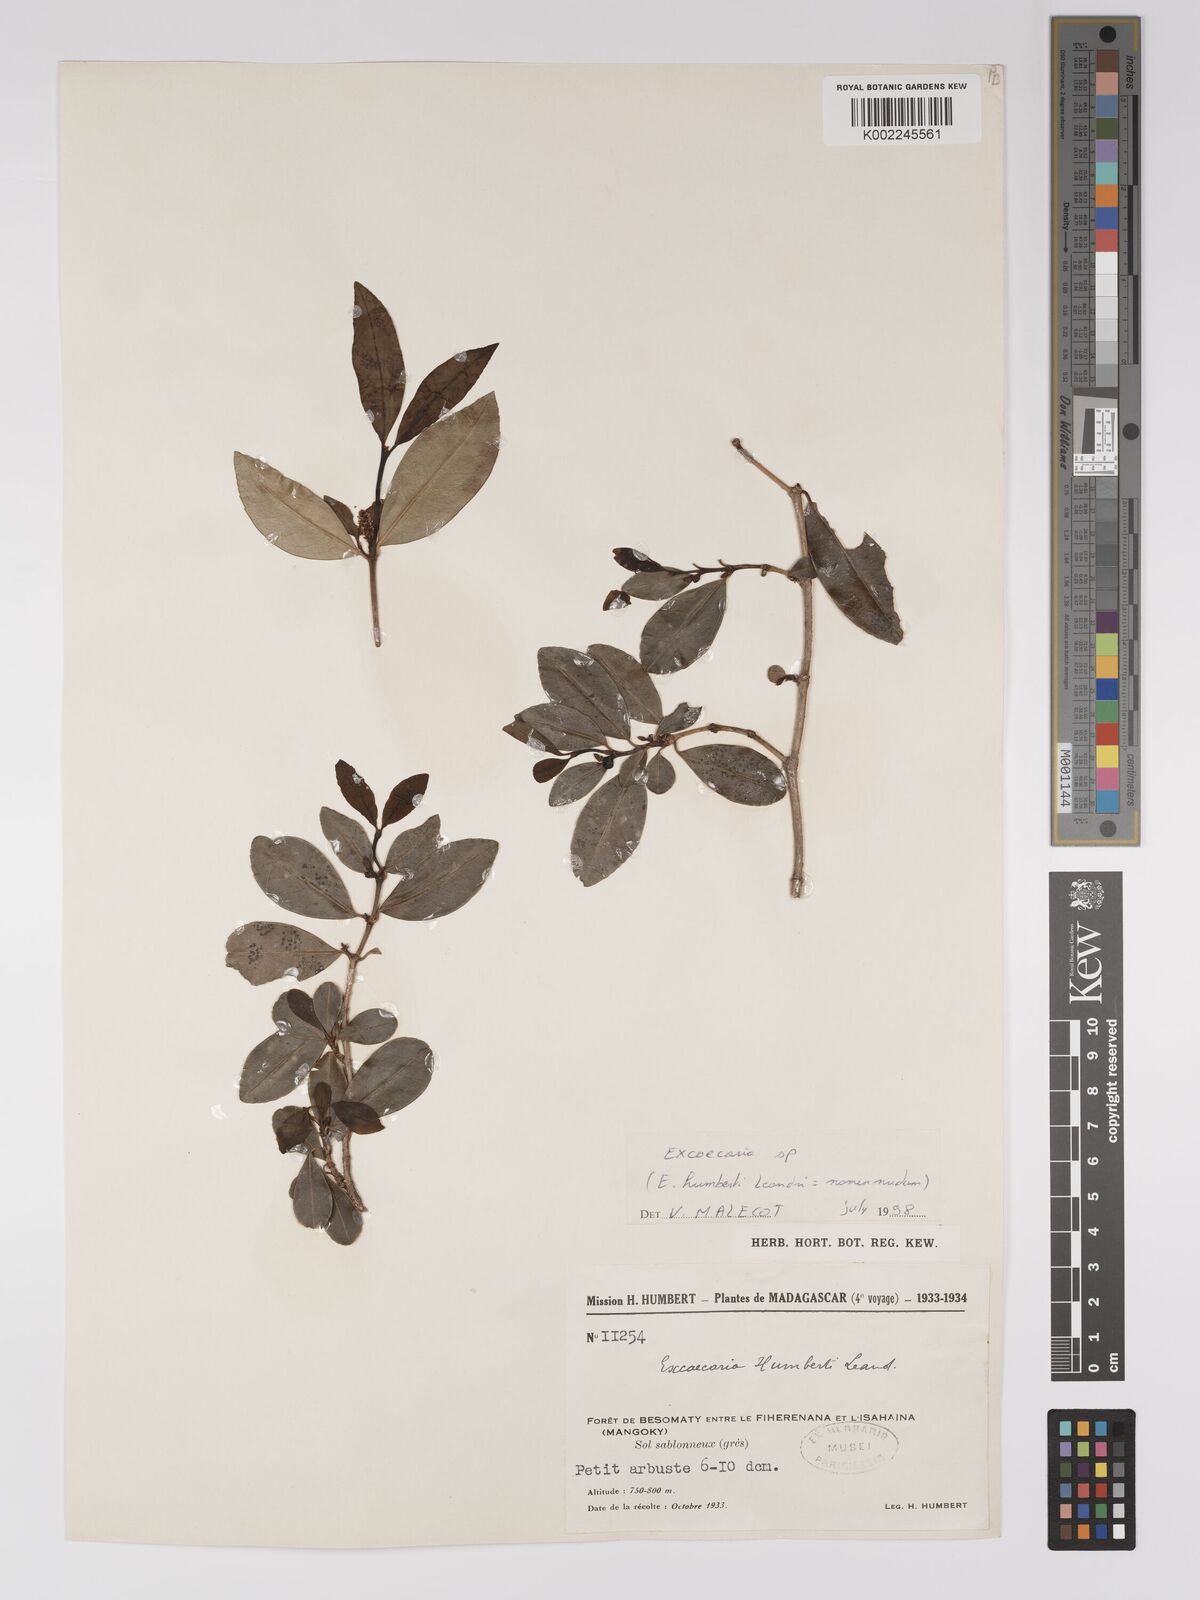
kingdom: Plantae
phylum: Tracheophyta
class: Magnoliopsida
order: Malpighiales
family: Euphorbiaceae
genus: Excoecaria
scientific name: Excoecaria
